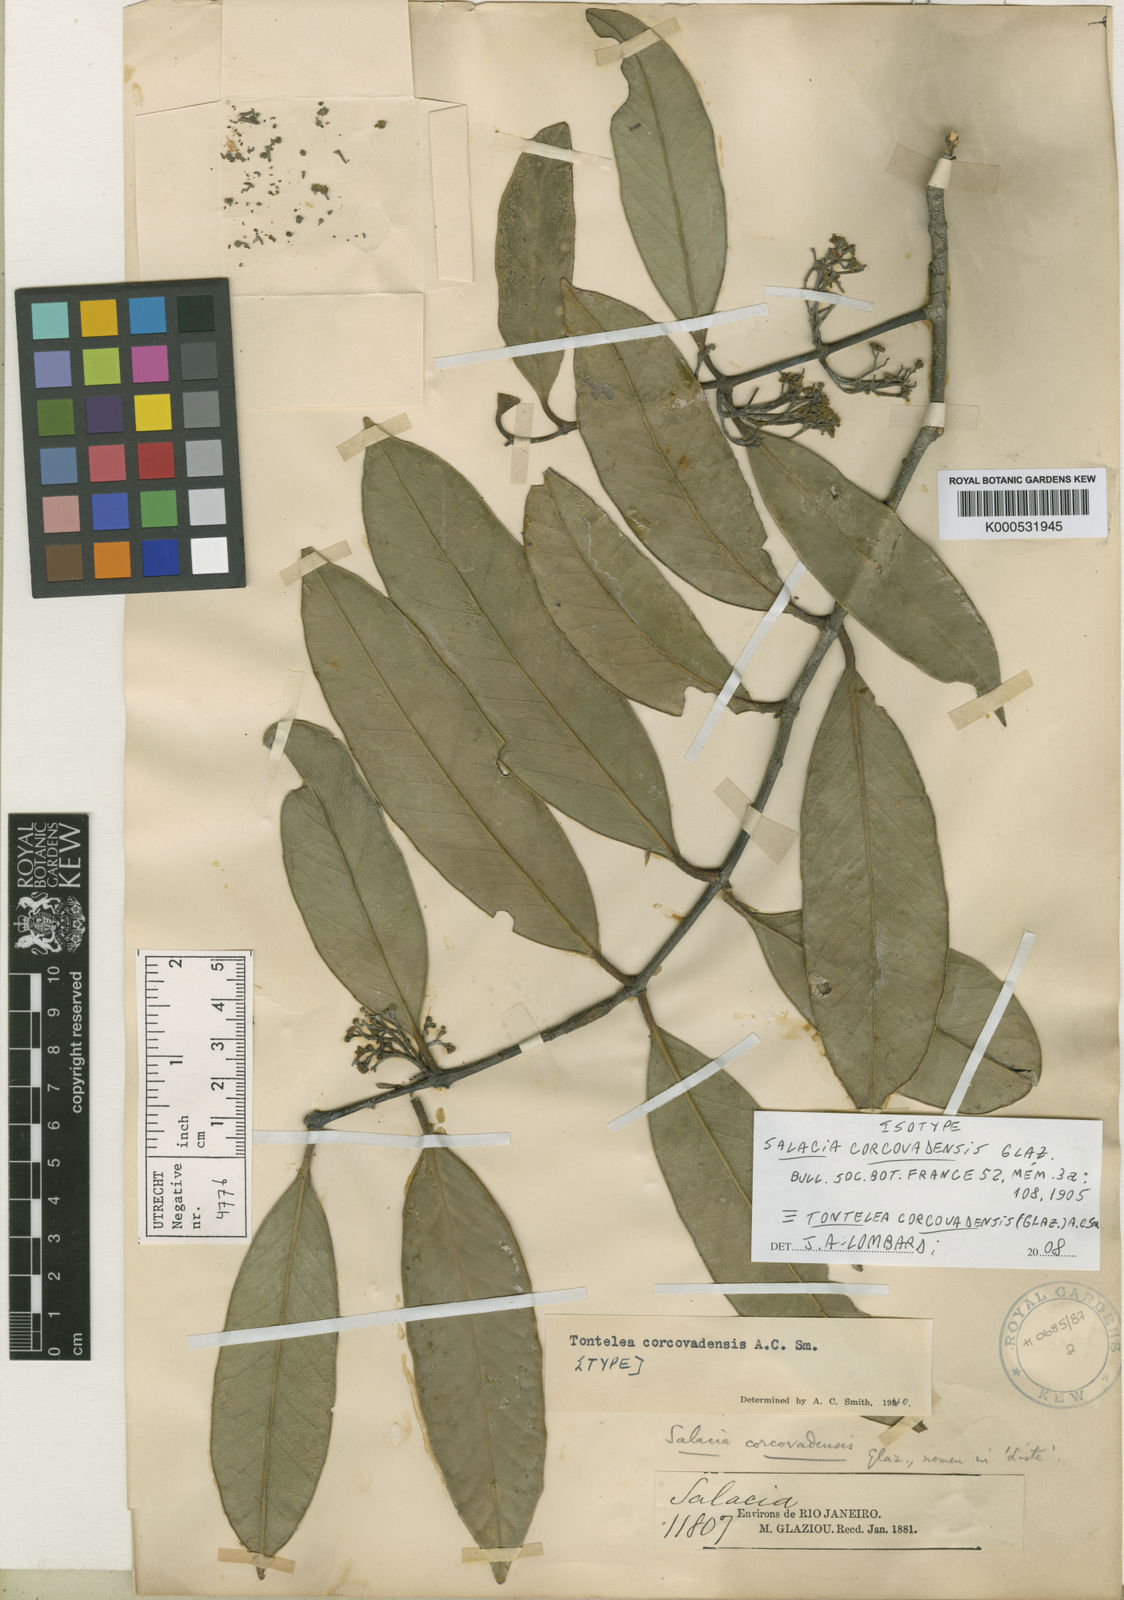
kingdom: Plantae
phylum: Tracheophyta
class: Magnoliopsida
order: Celastrales
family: Celastraceae
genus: Tontelea
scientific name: Tontelea corcovadensis
